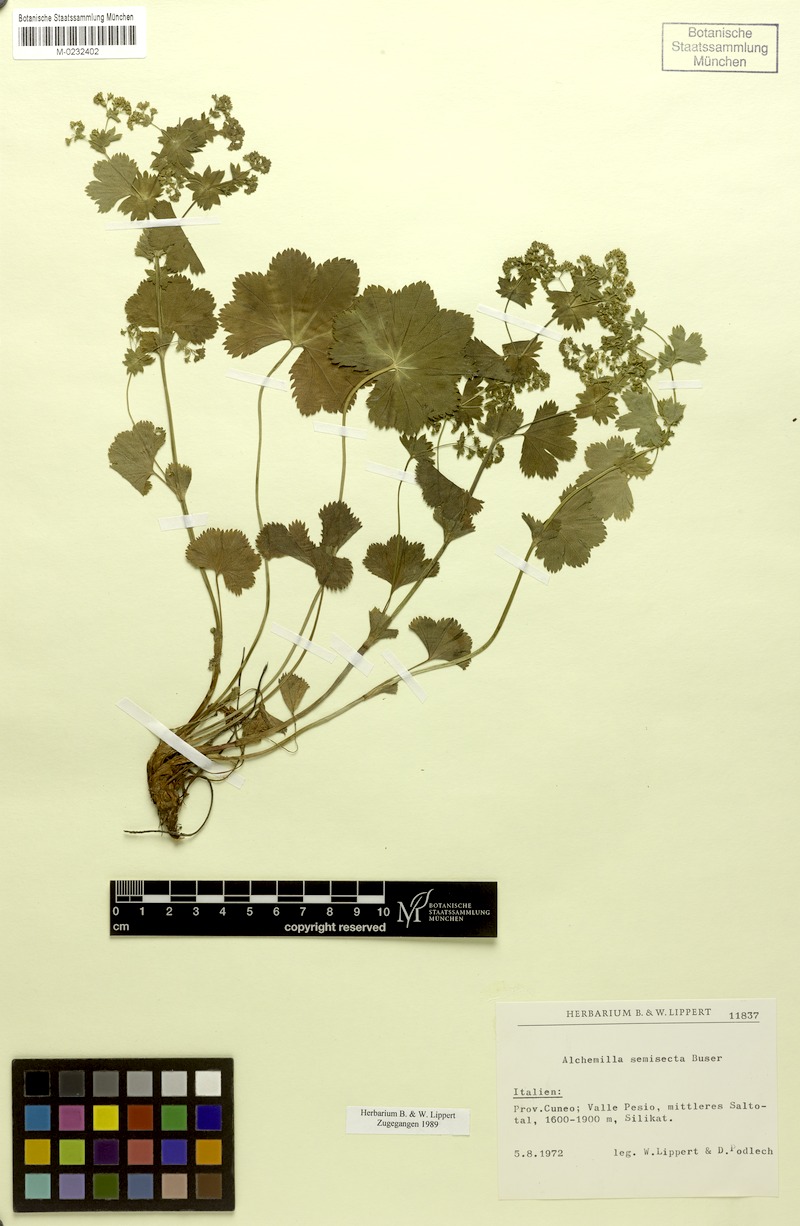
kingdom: Plantae
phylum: Tracheophyta
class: Magnoliopsida
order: Rosales
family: Rosaceae
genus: Alchemilla
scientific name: Alchemilla semisecta
